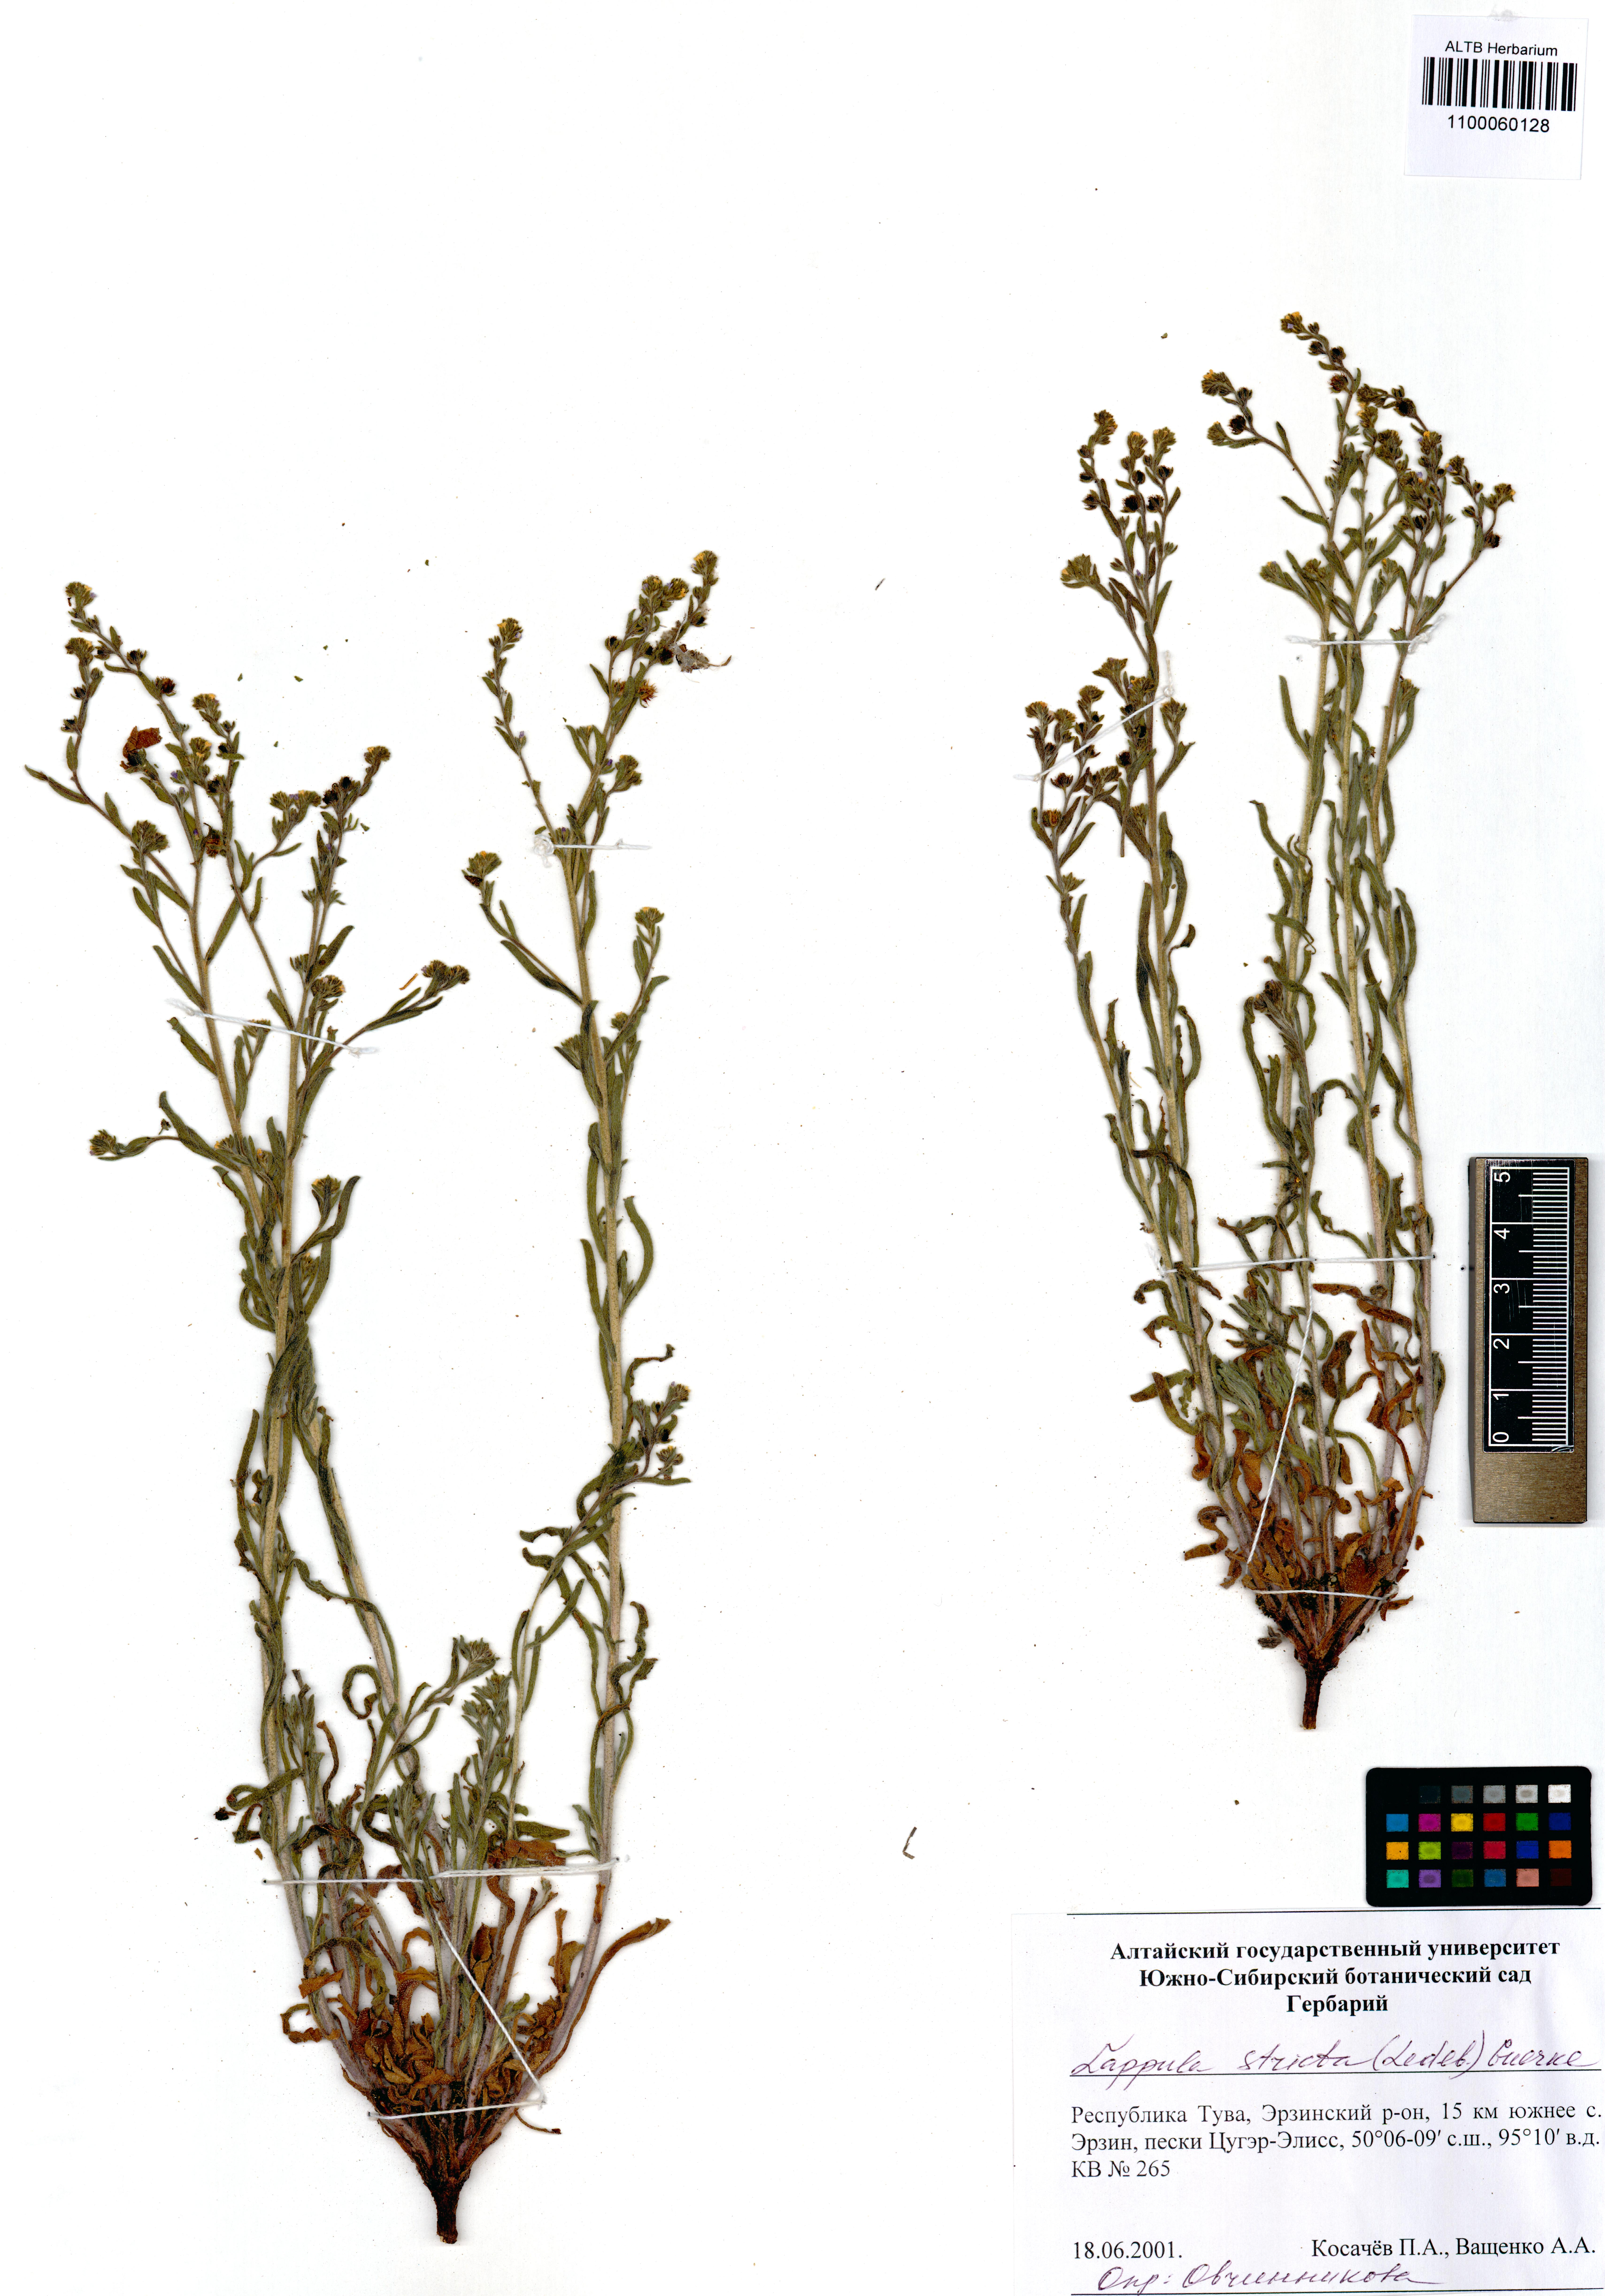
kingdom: Plantae
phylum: Tracheophyta
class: Magnoliopsida
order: Boraginales
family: Boraginaceae
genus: Lappula
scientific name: Lappula stricta
